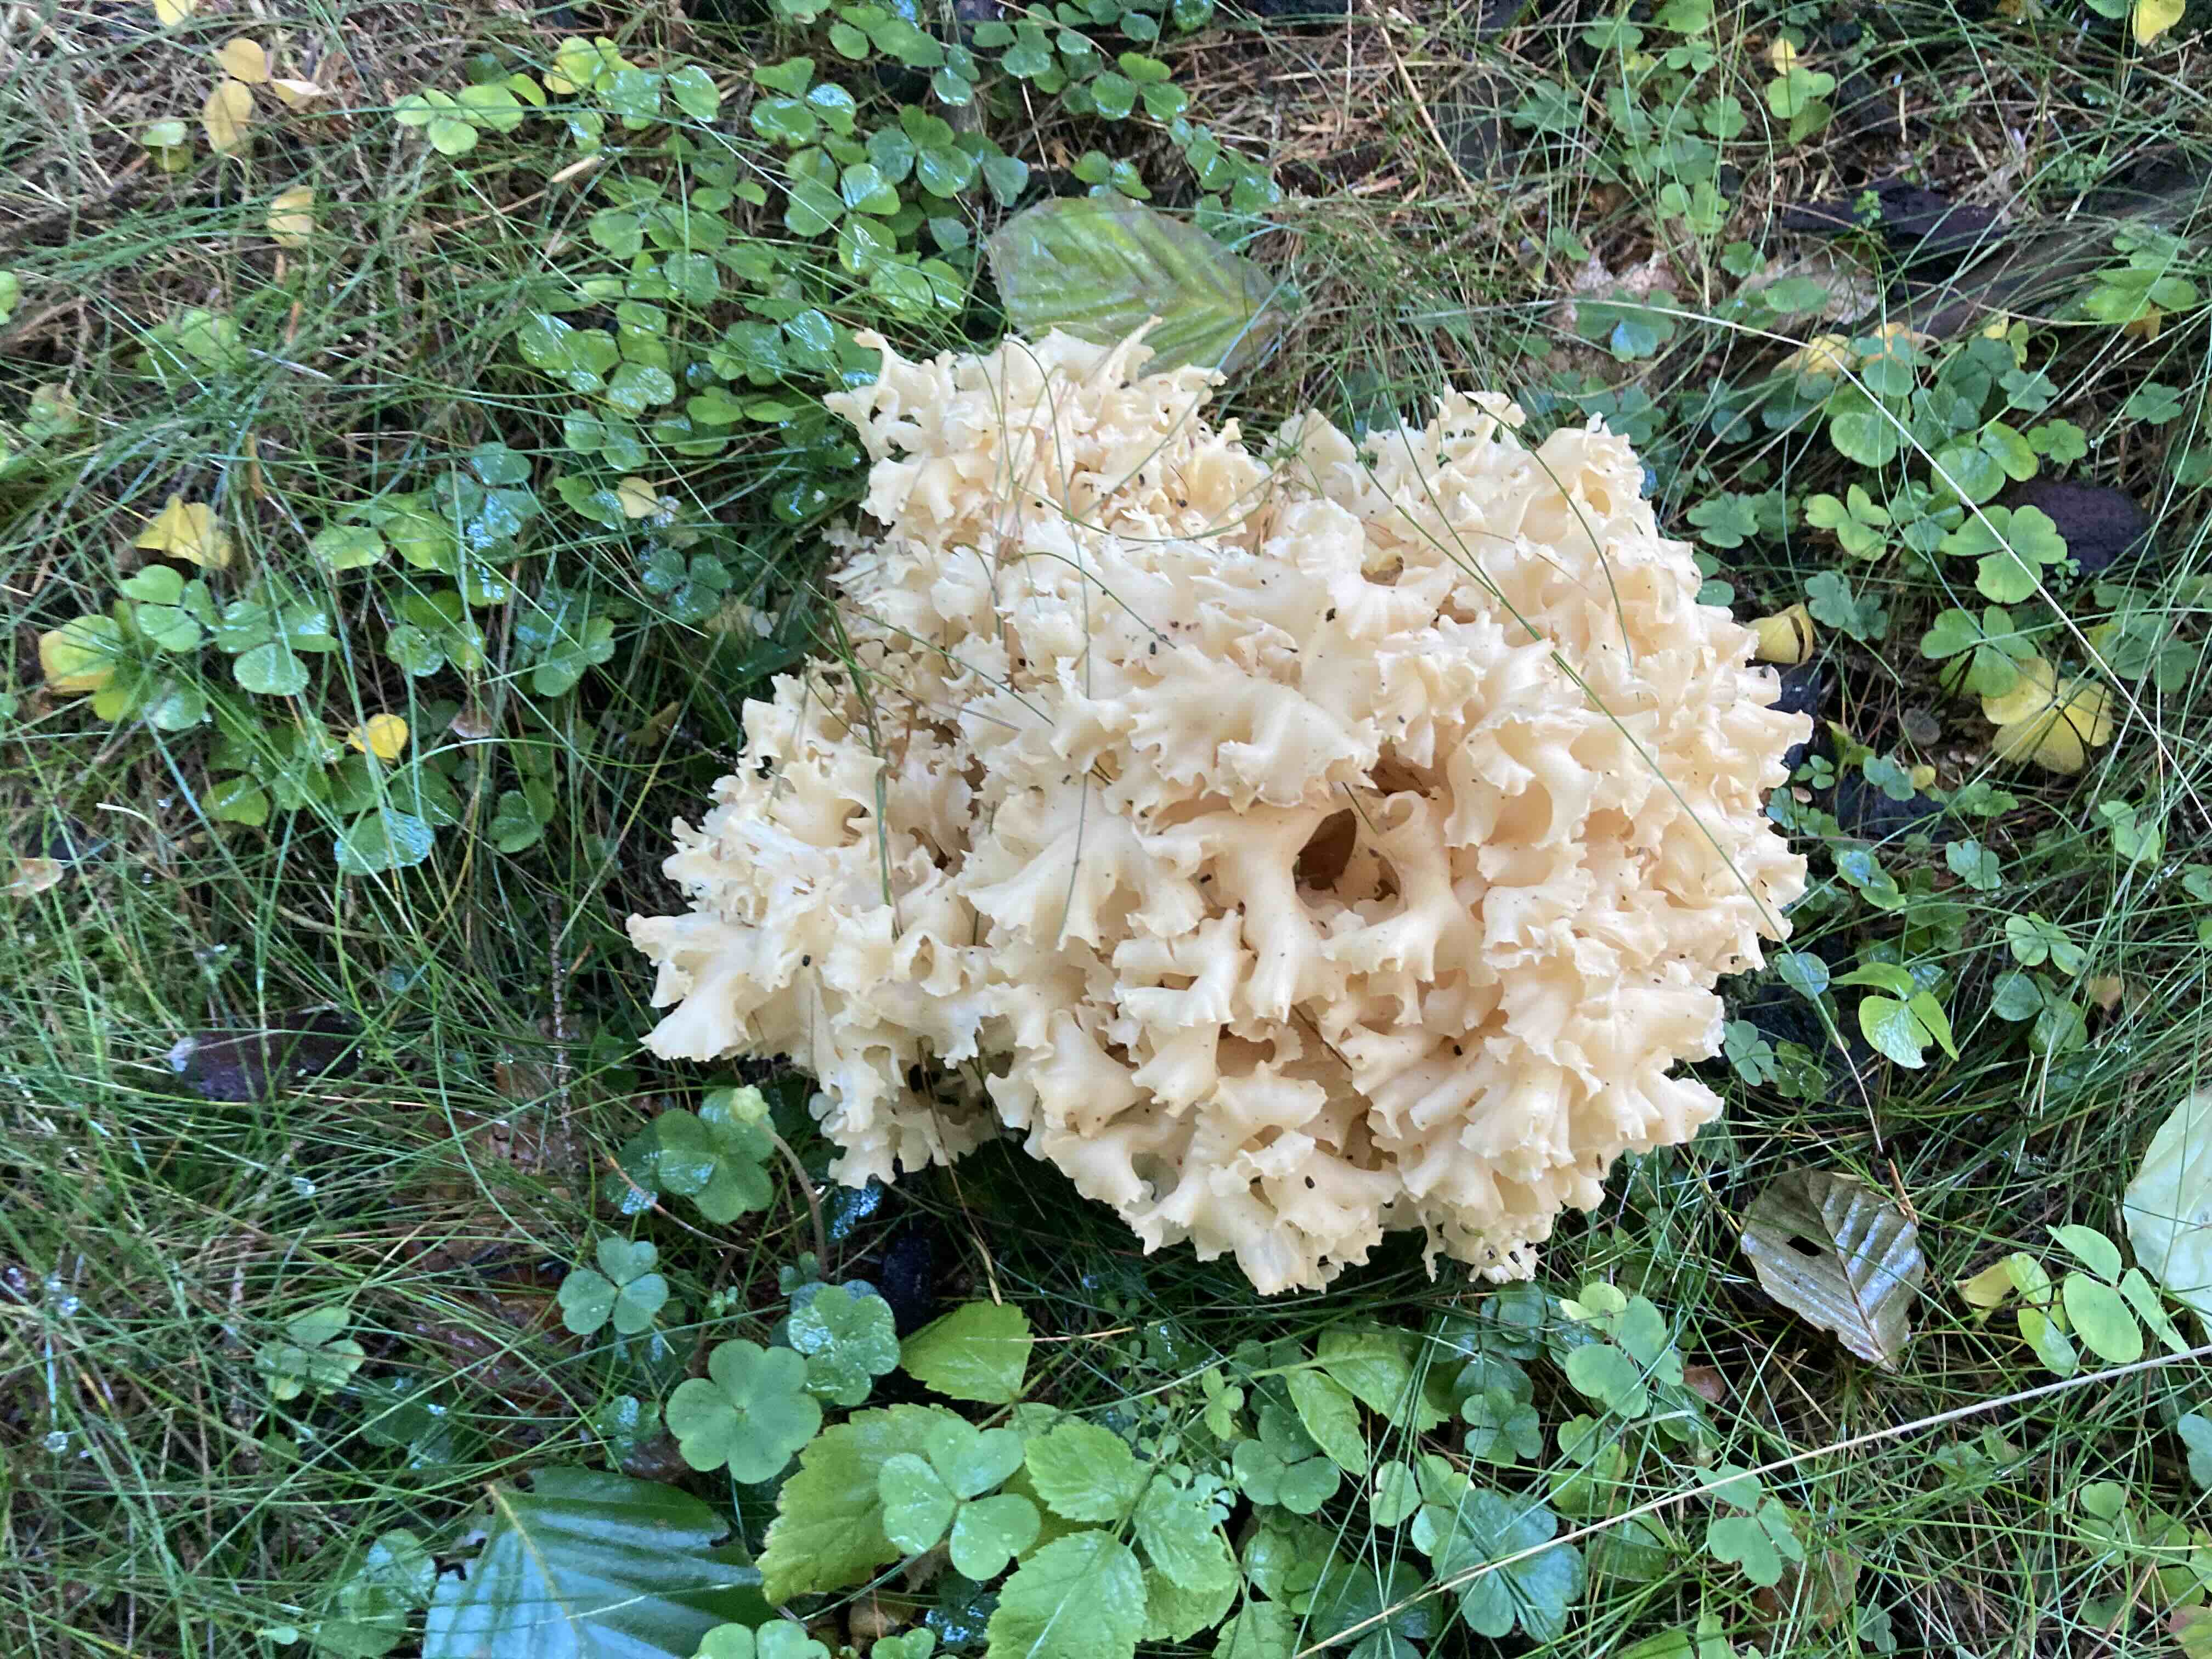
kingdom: Fungi
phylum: Basidiomycota
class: Agaricomycetes
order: Polyporales
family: Sparassidaceae
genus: Sparassis
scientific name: Sparassis crispa
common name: kruset blomkålssvamp
